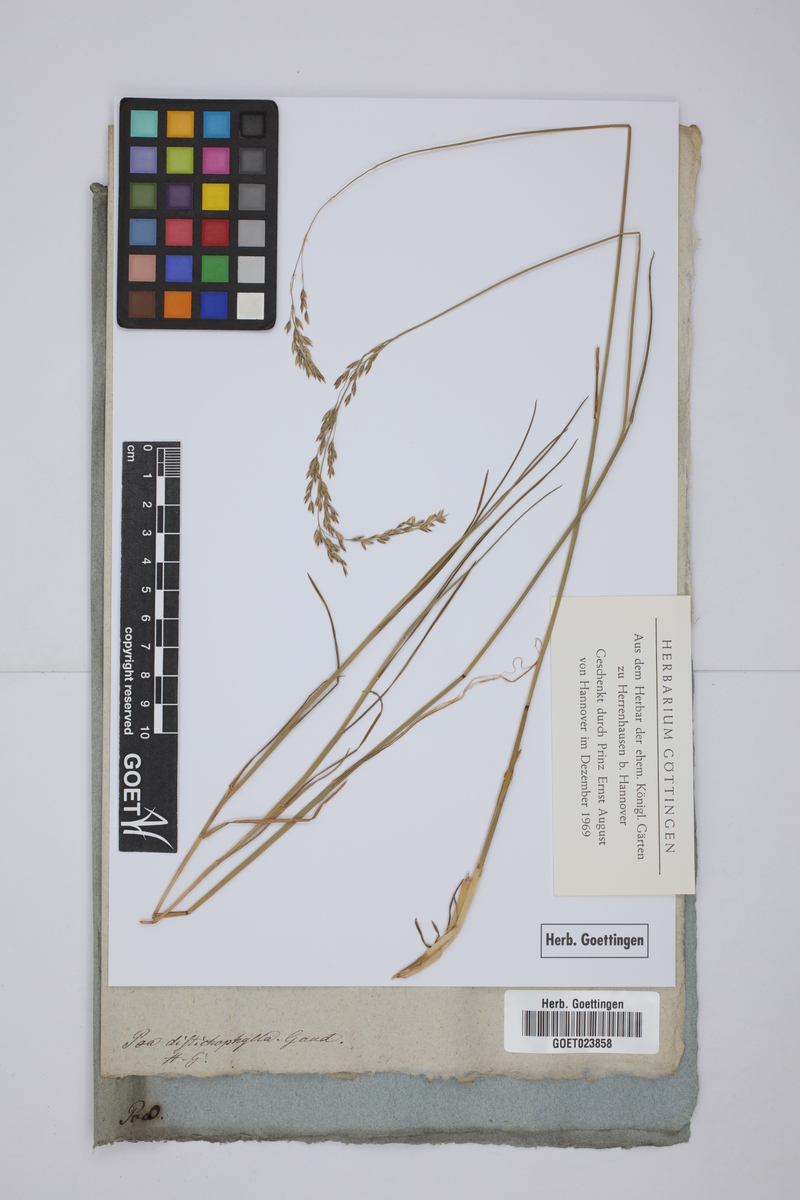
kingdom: Plantae
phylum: Tracheophyta
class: Liliopsida
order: Poales
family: Poaceae
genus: Poa
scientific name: Poa cenisia
